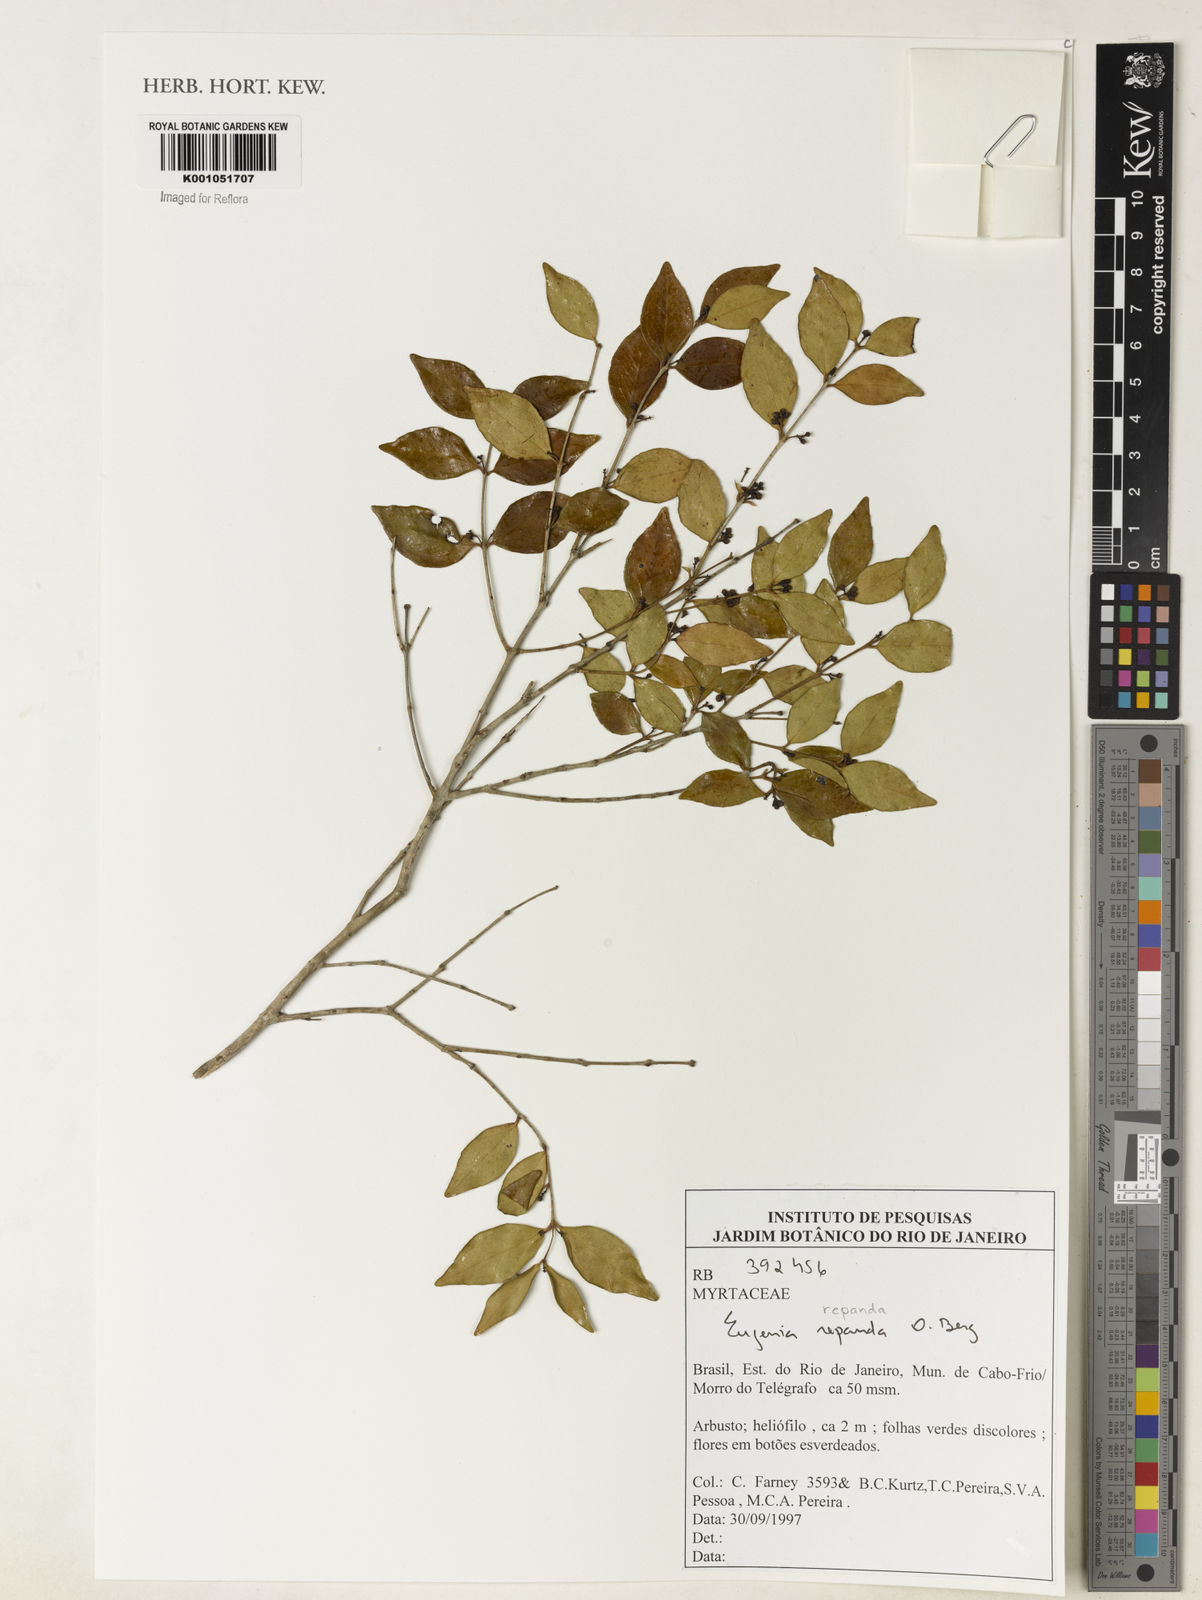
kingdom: Plantae
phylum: Tracheophyta
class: Magnoliopsida
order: Myrtales
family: Myrtaceae
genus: Eugenia
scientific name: Eugenia repanda
